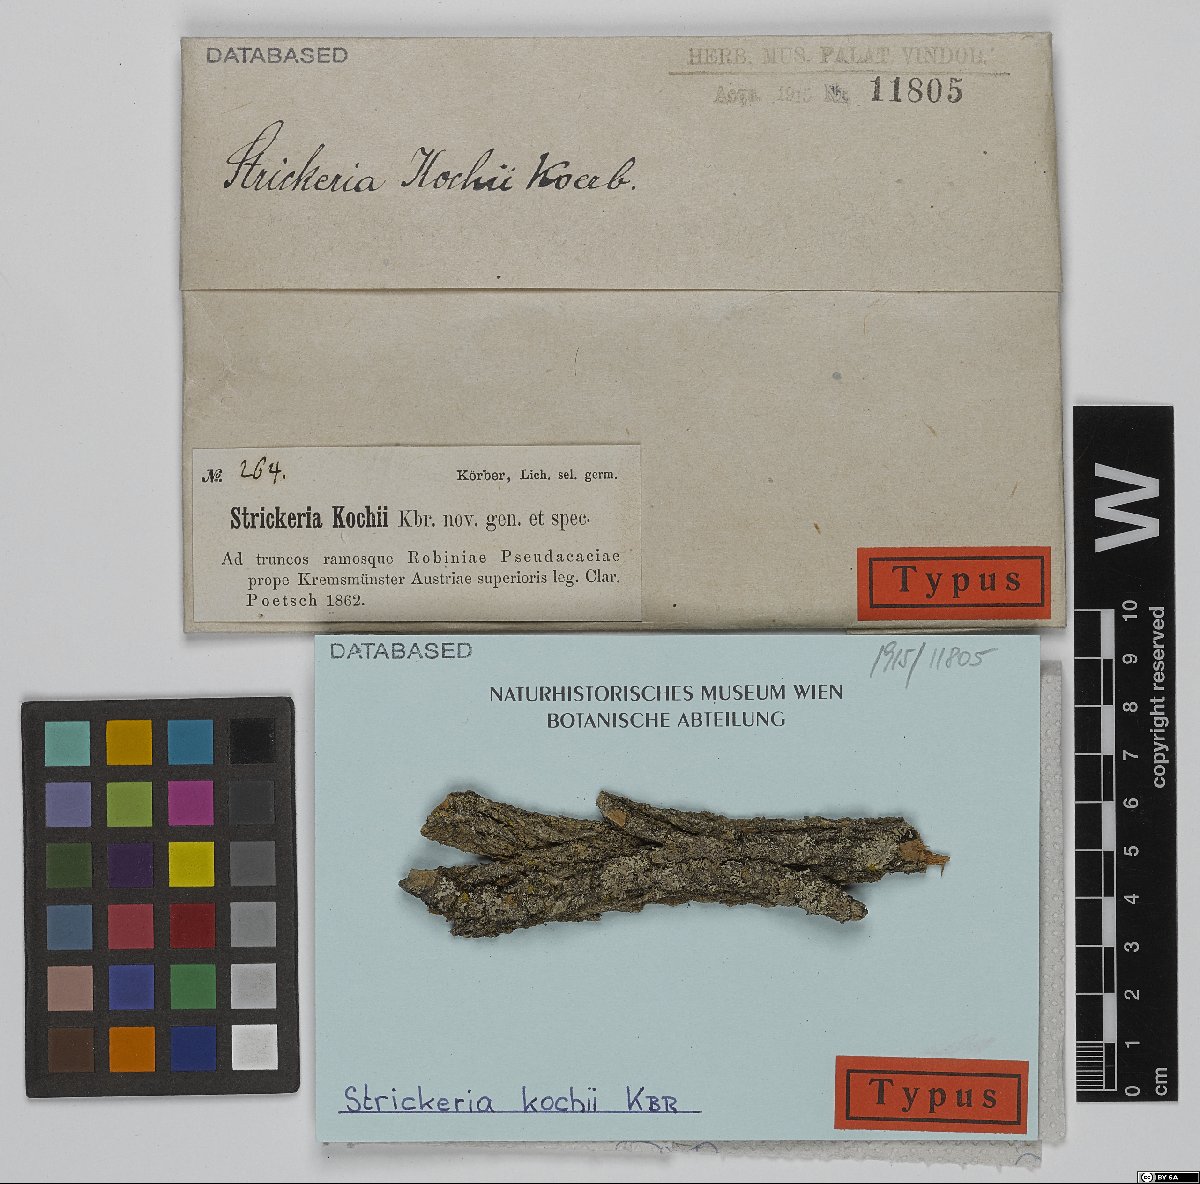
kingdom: Fungi
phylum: Ascomycota
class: Sordariomycetes
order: Amphisphaeriales
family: Sporocadaceae
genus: Strickeria
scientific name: Strickeria kochii
